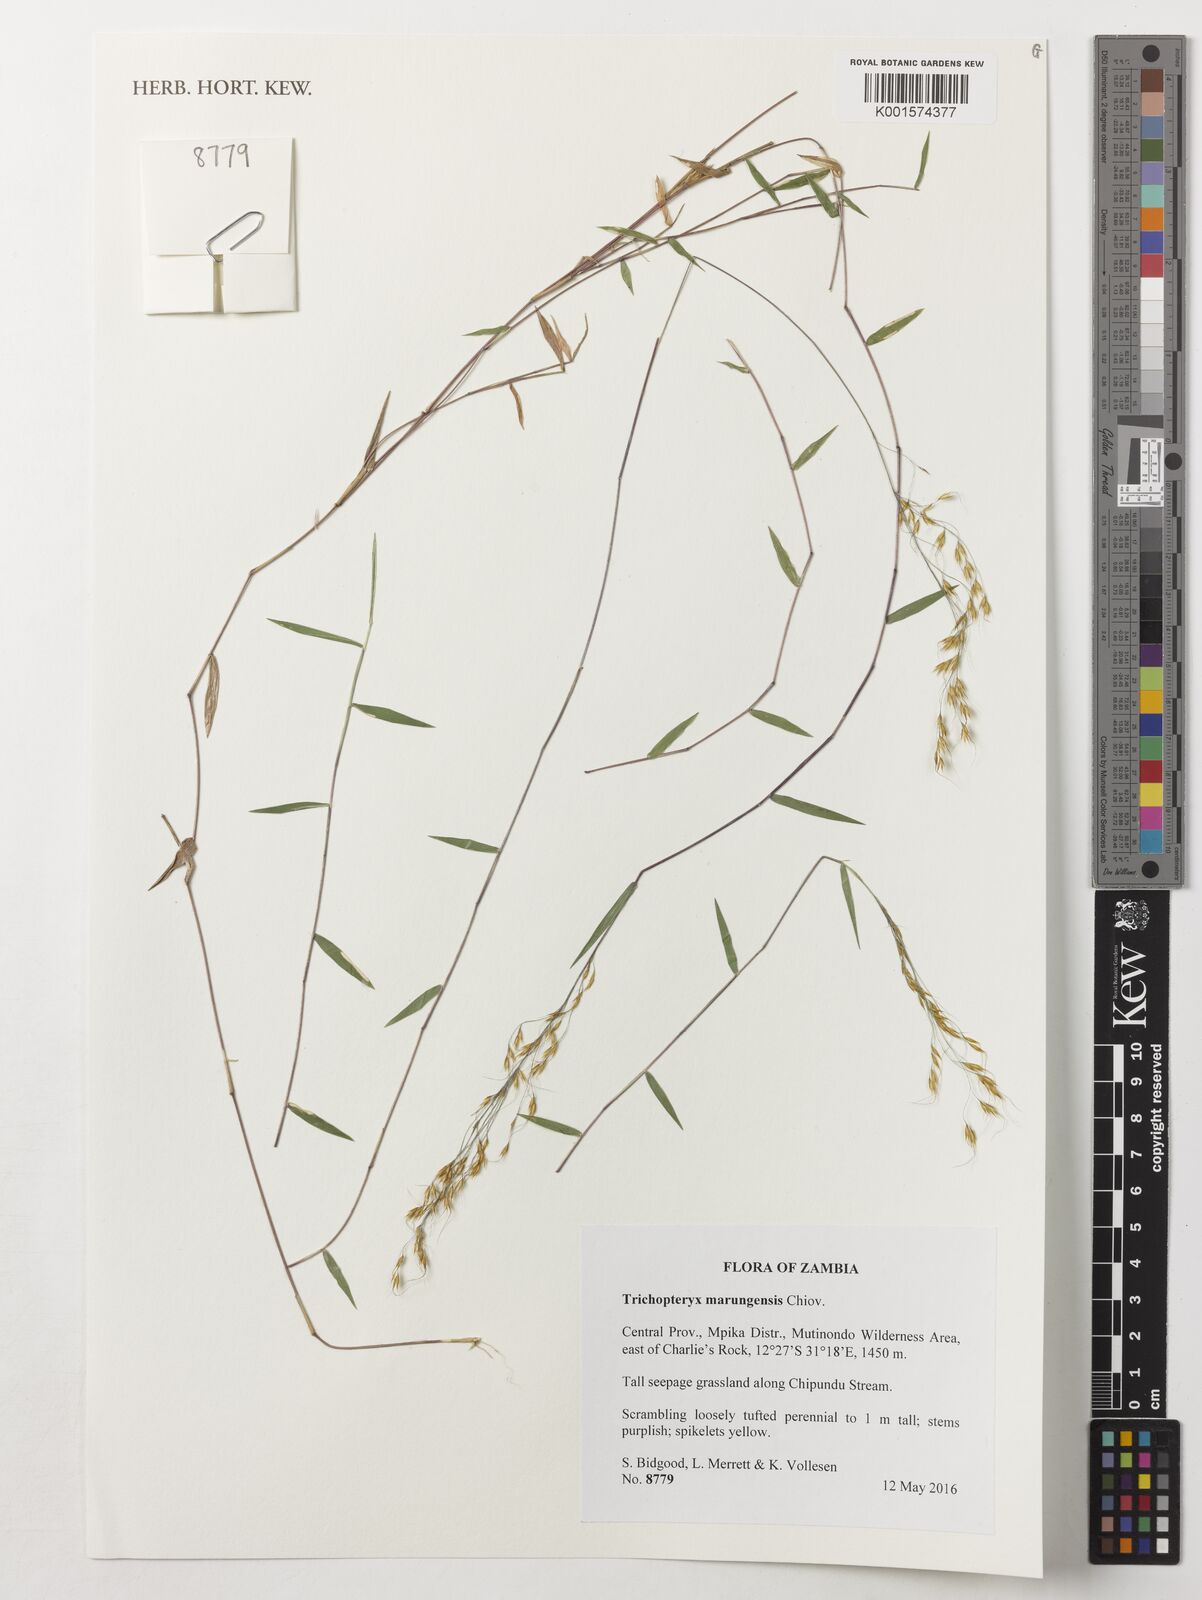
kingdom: Plantae
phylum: Tracheophyta
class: Liliopsida
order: Poales
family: Poaceae
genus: Trichopteryx
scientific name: Trichopteryx marungensis
